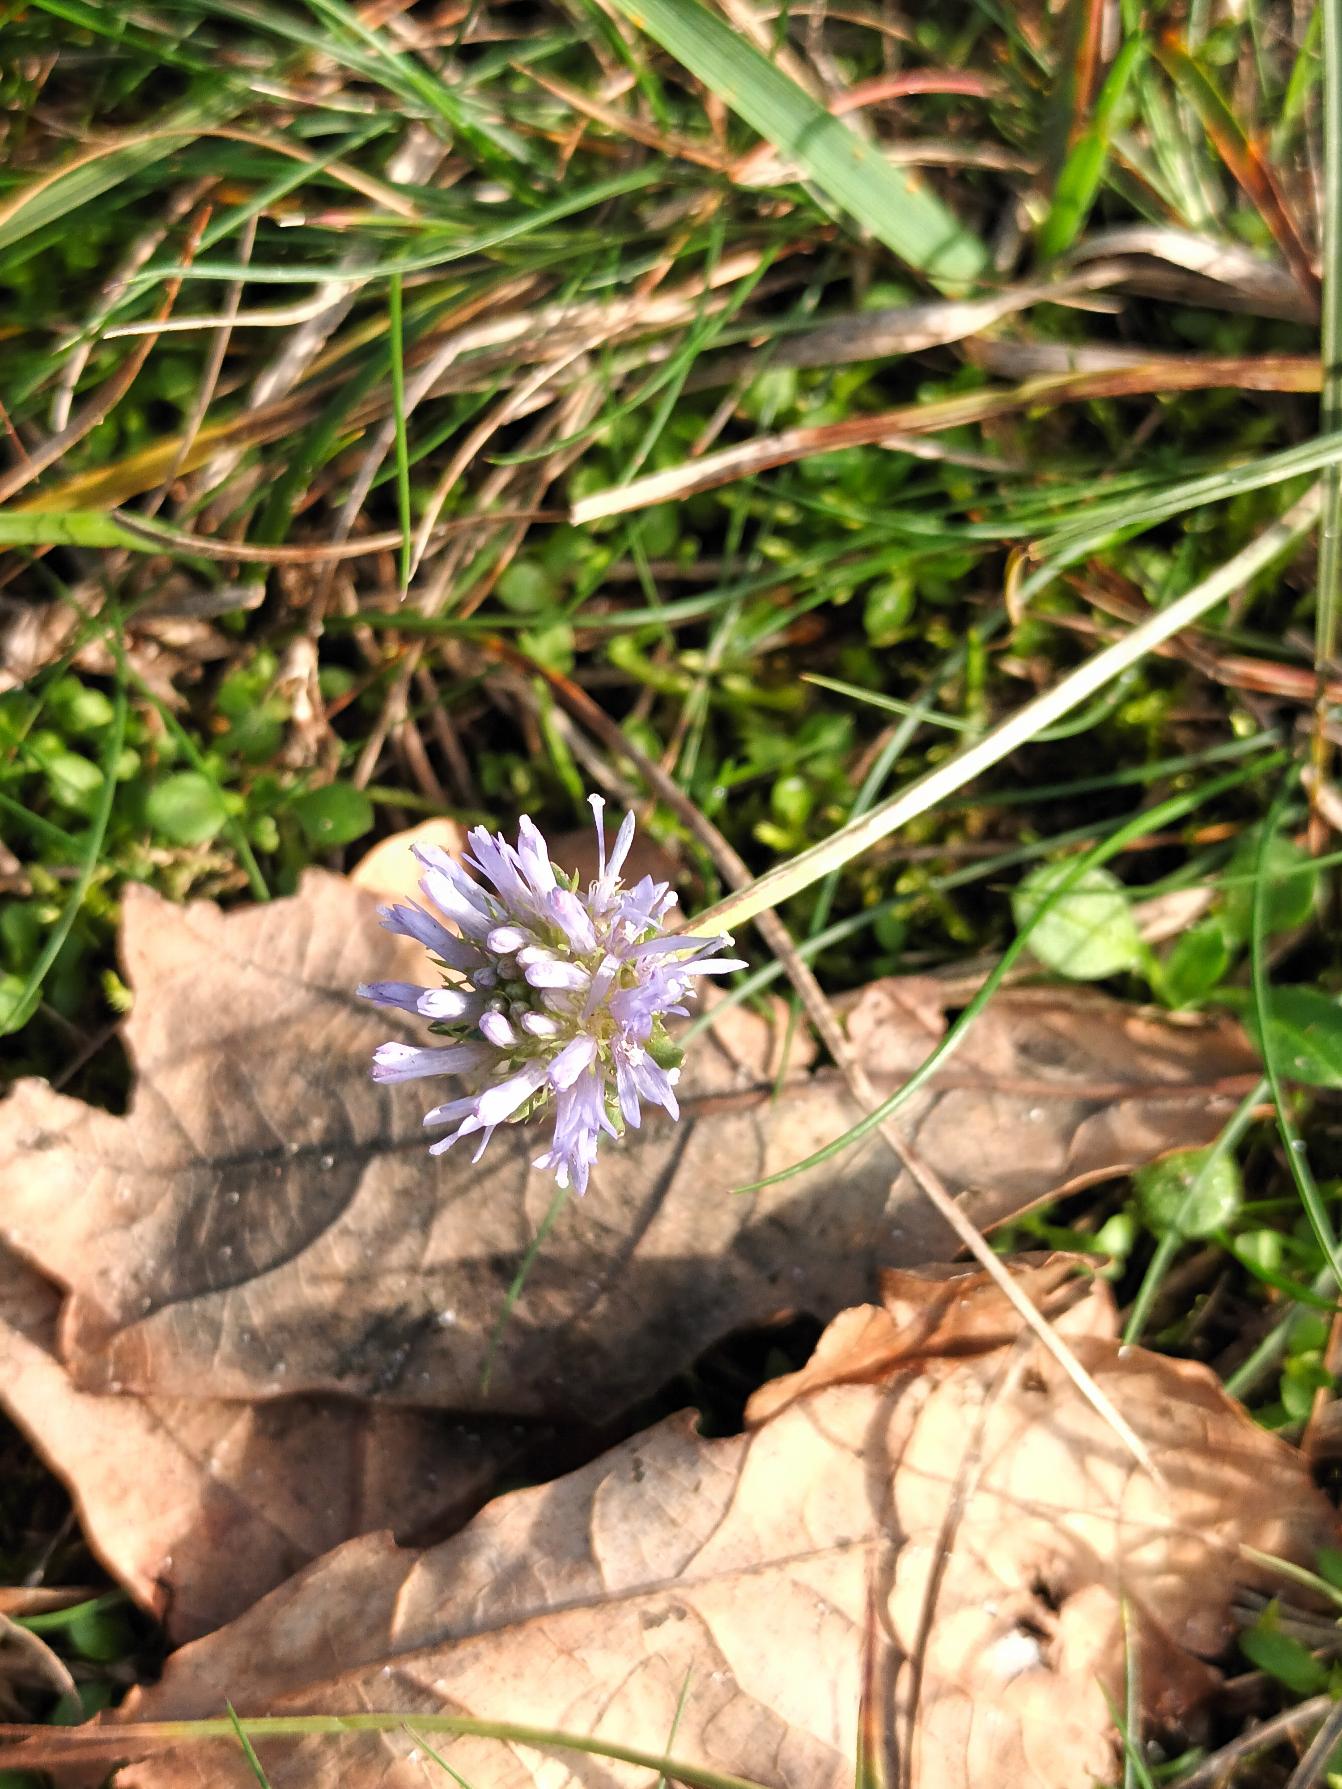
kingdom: Plantae
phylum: Tracheophyta
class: Magnoliopsida
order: Asterales
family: Campanulaceae
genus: Jasione
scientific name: Jasione montana
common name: Blåmunke
